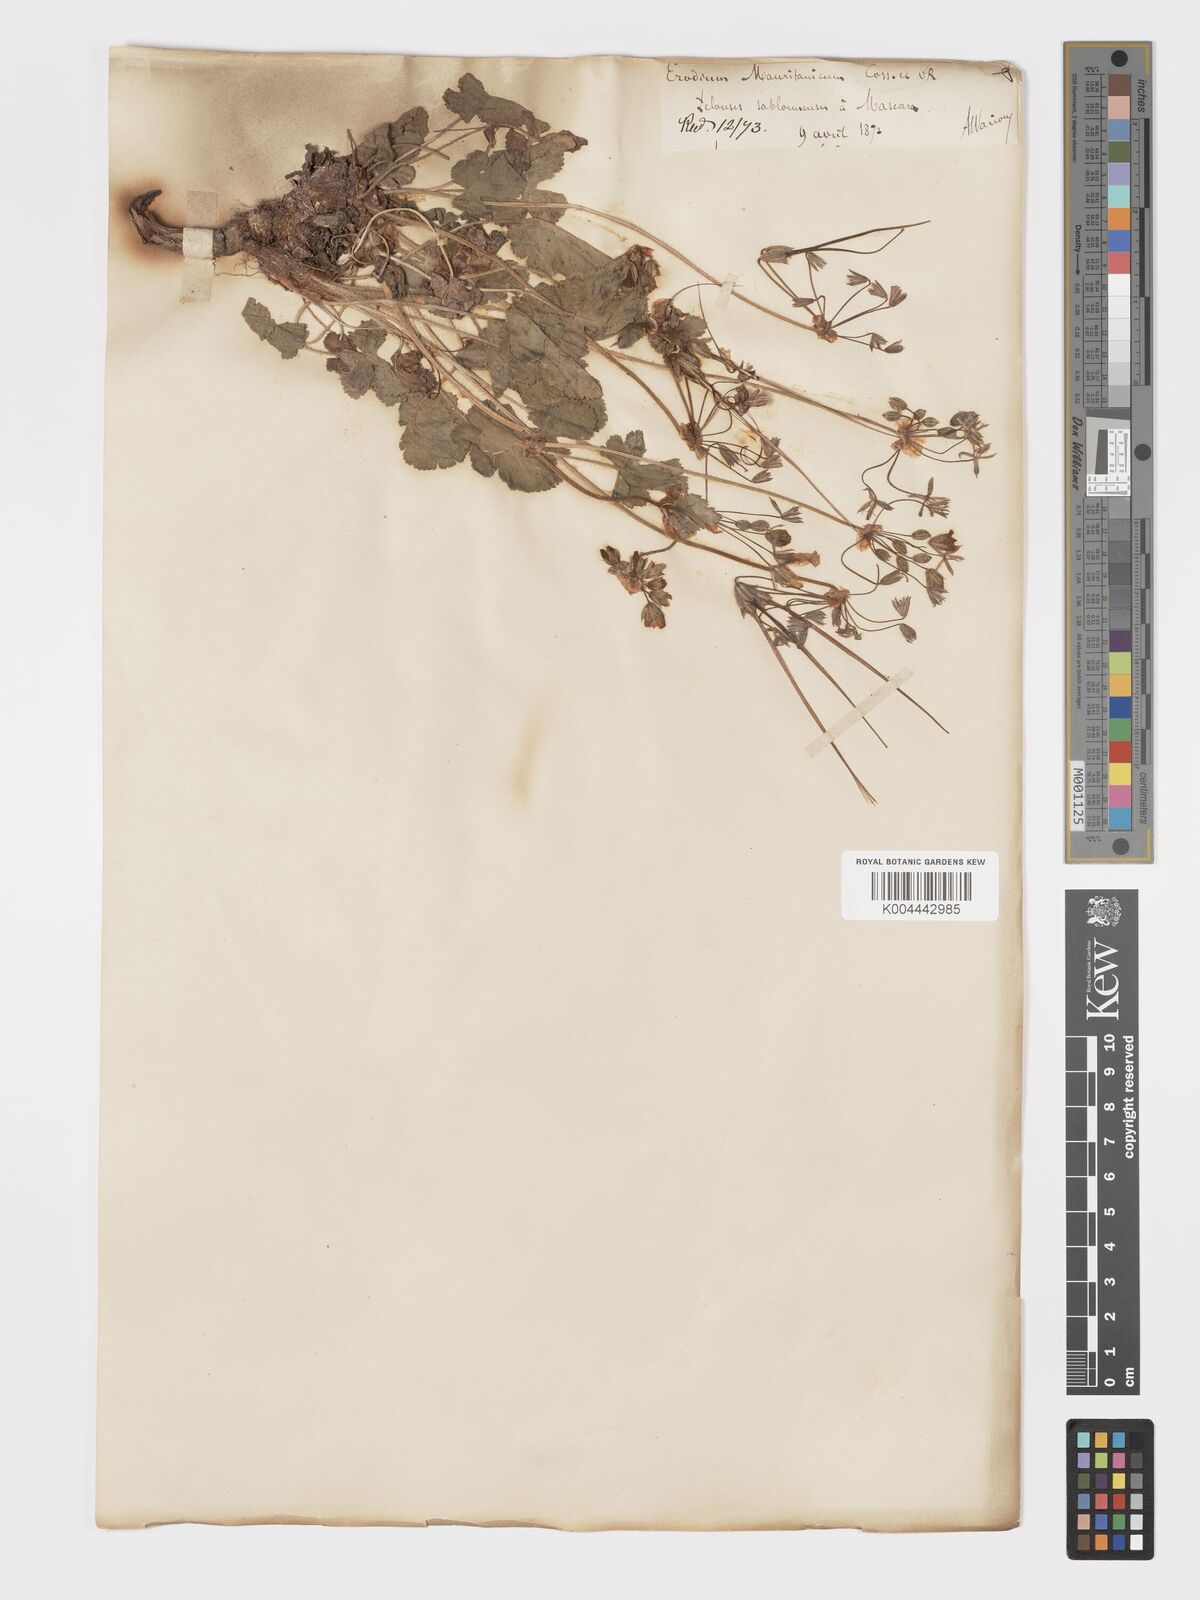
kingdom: Plantae
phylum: Tracheophyta
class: Magnoliopsida
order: Geraniales
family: Geraniaceae
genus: Erodium
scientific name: Erodium munbyanum
